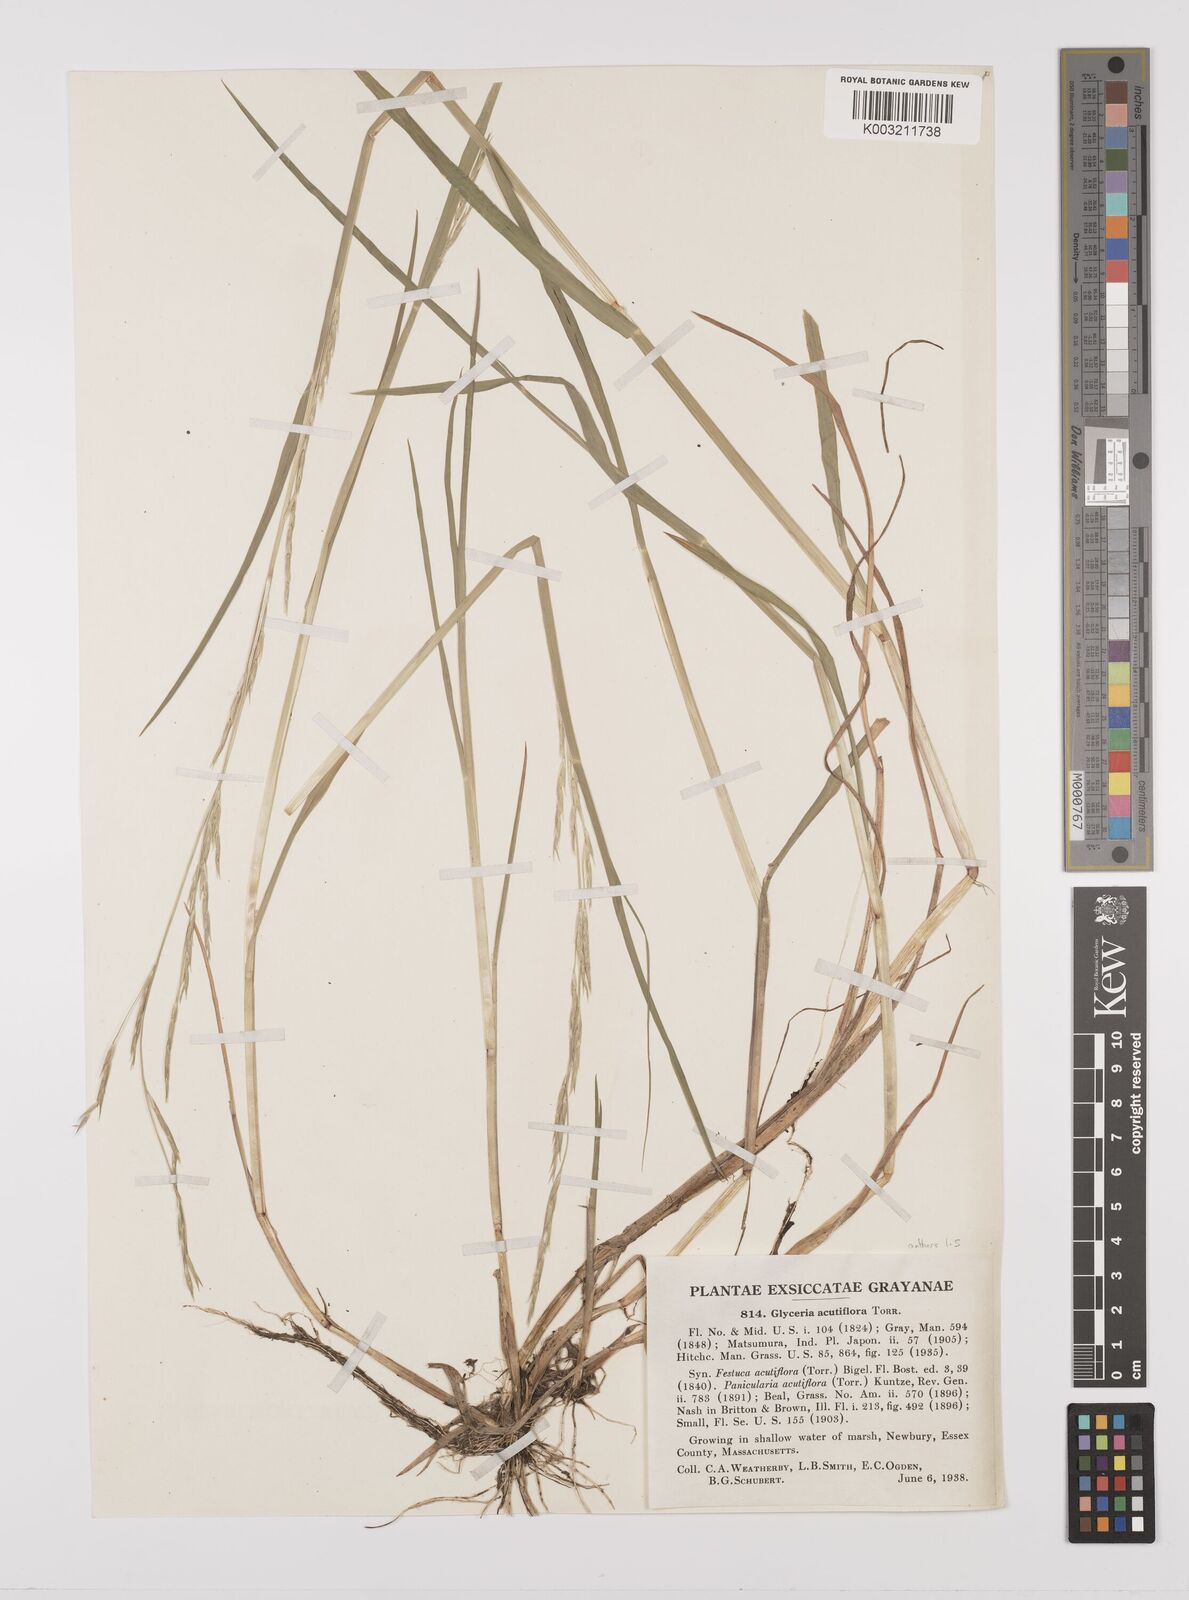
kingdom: Plantae
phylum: Tracheophyta
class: Liliopsida
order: Poales
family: Poaceae
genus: Glyceria
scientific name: Glyceria acutiflora
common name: Sharp-glumed manna-grass
